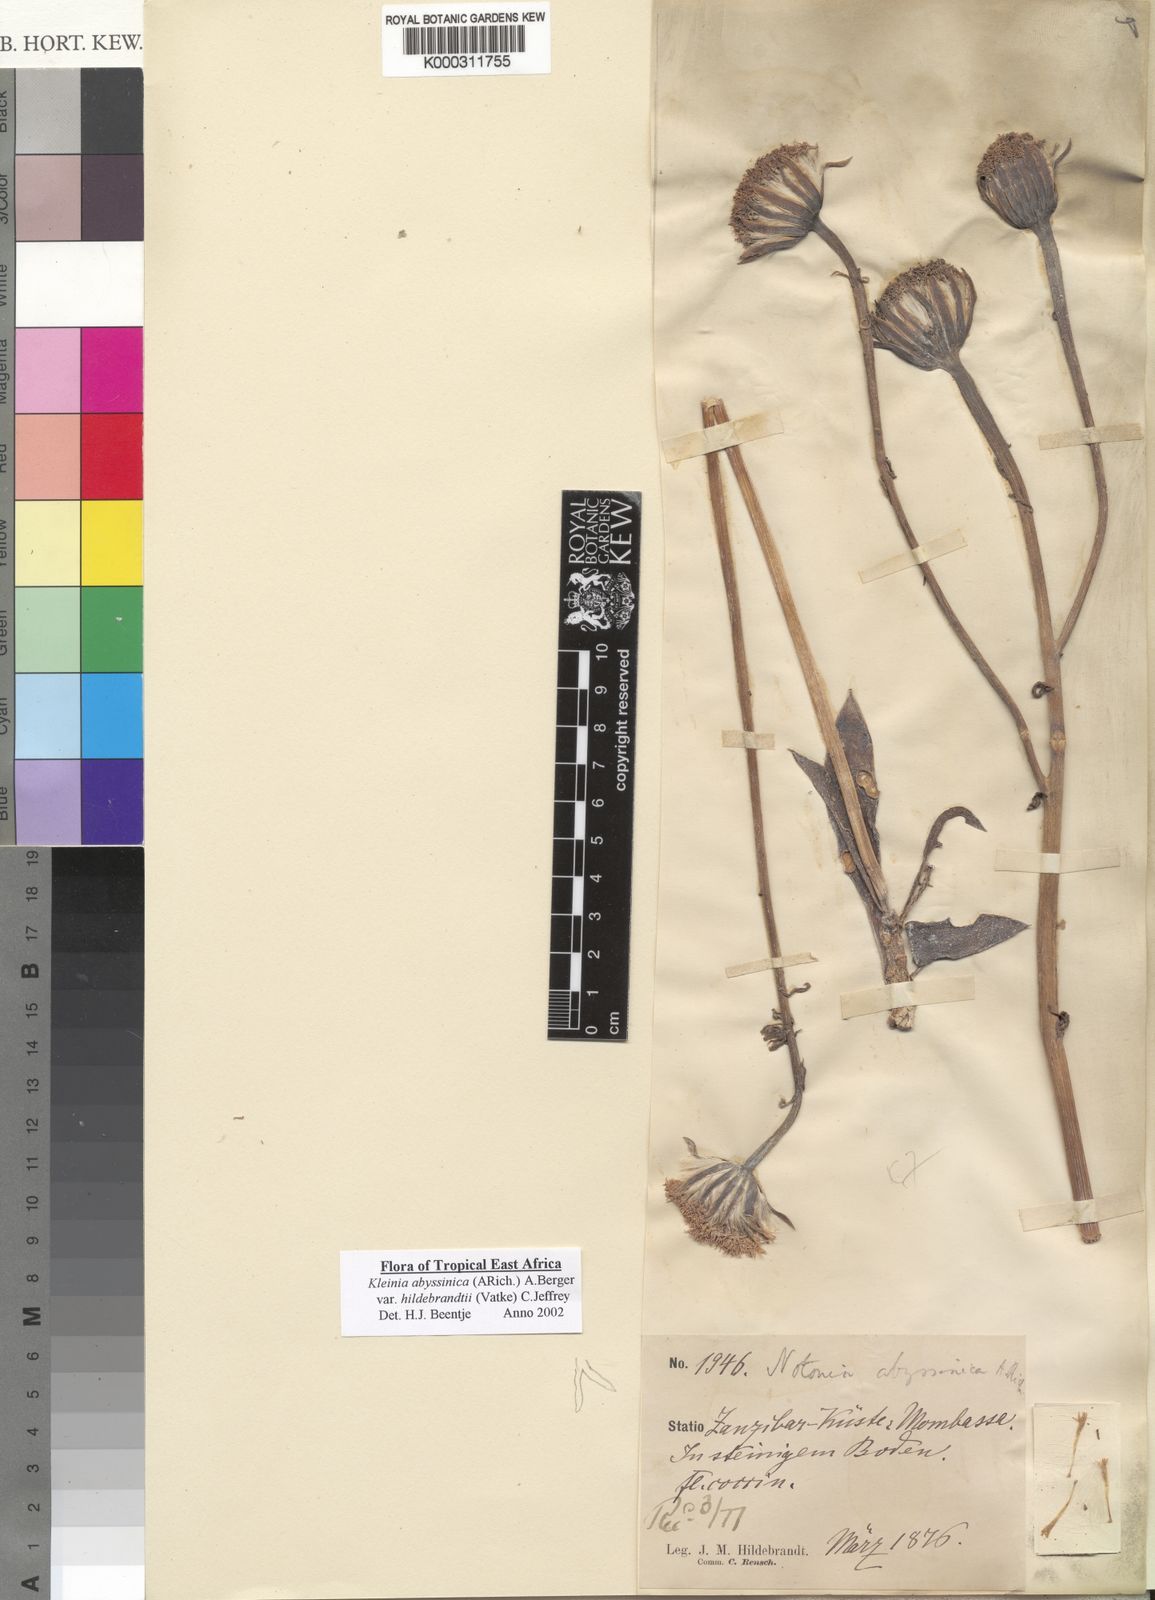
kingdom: Plantae
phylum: Tracheophyta
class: Magnoliopsida
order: Asterales
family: Asteraceae
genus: Kleinia
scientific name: Kleinia abyssinica
